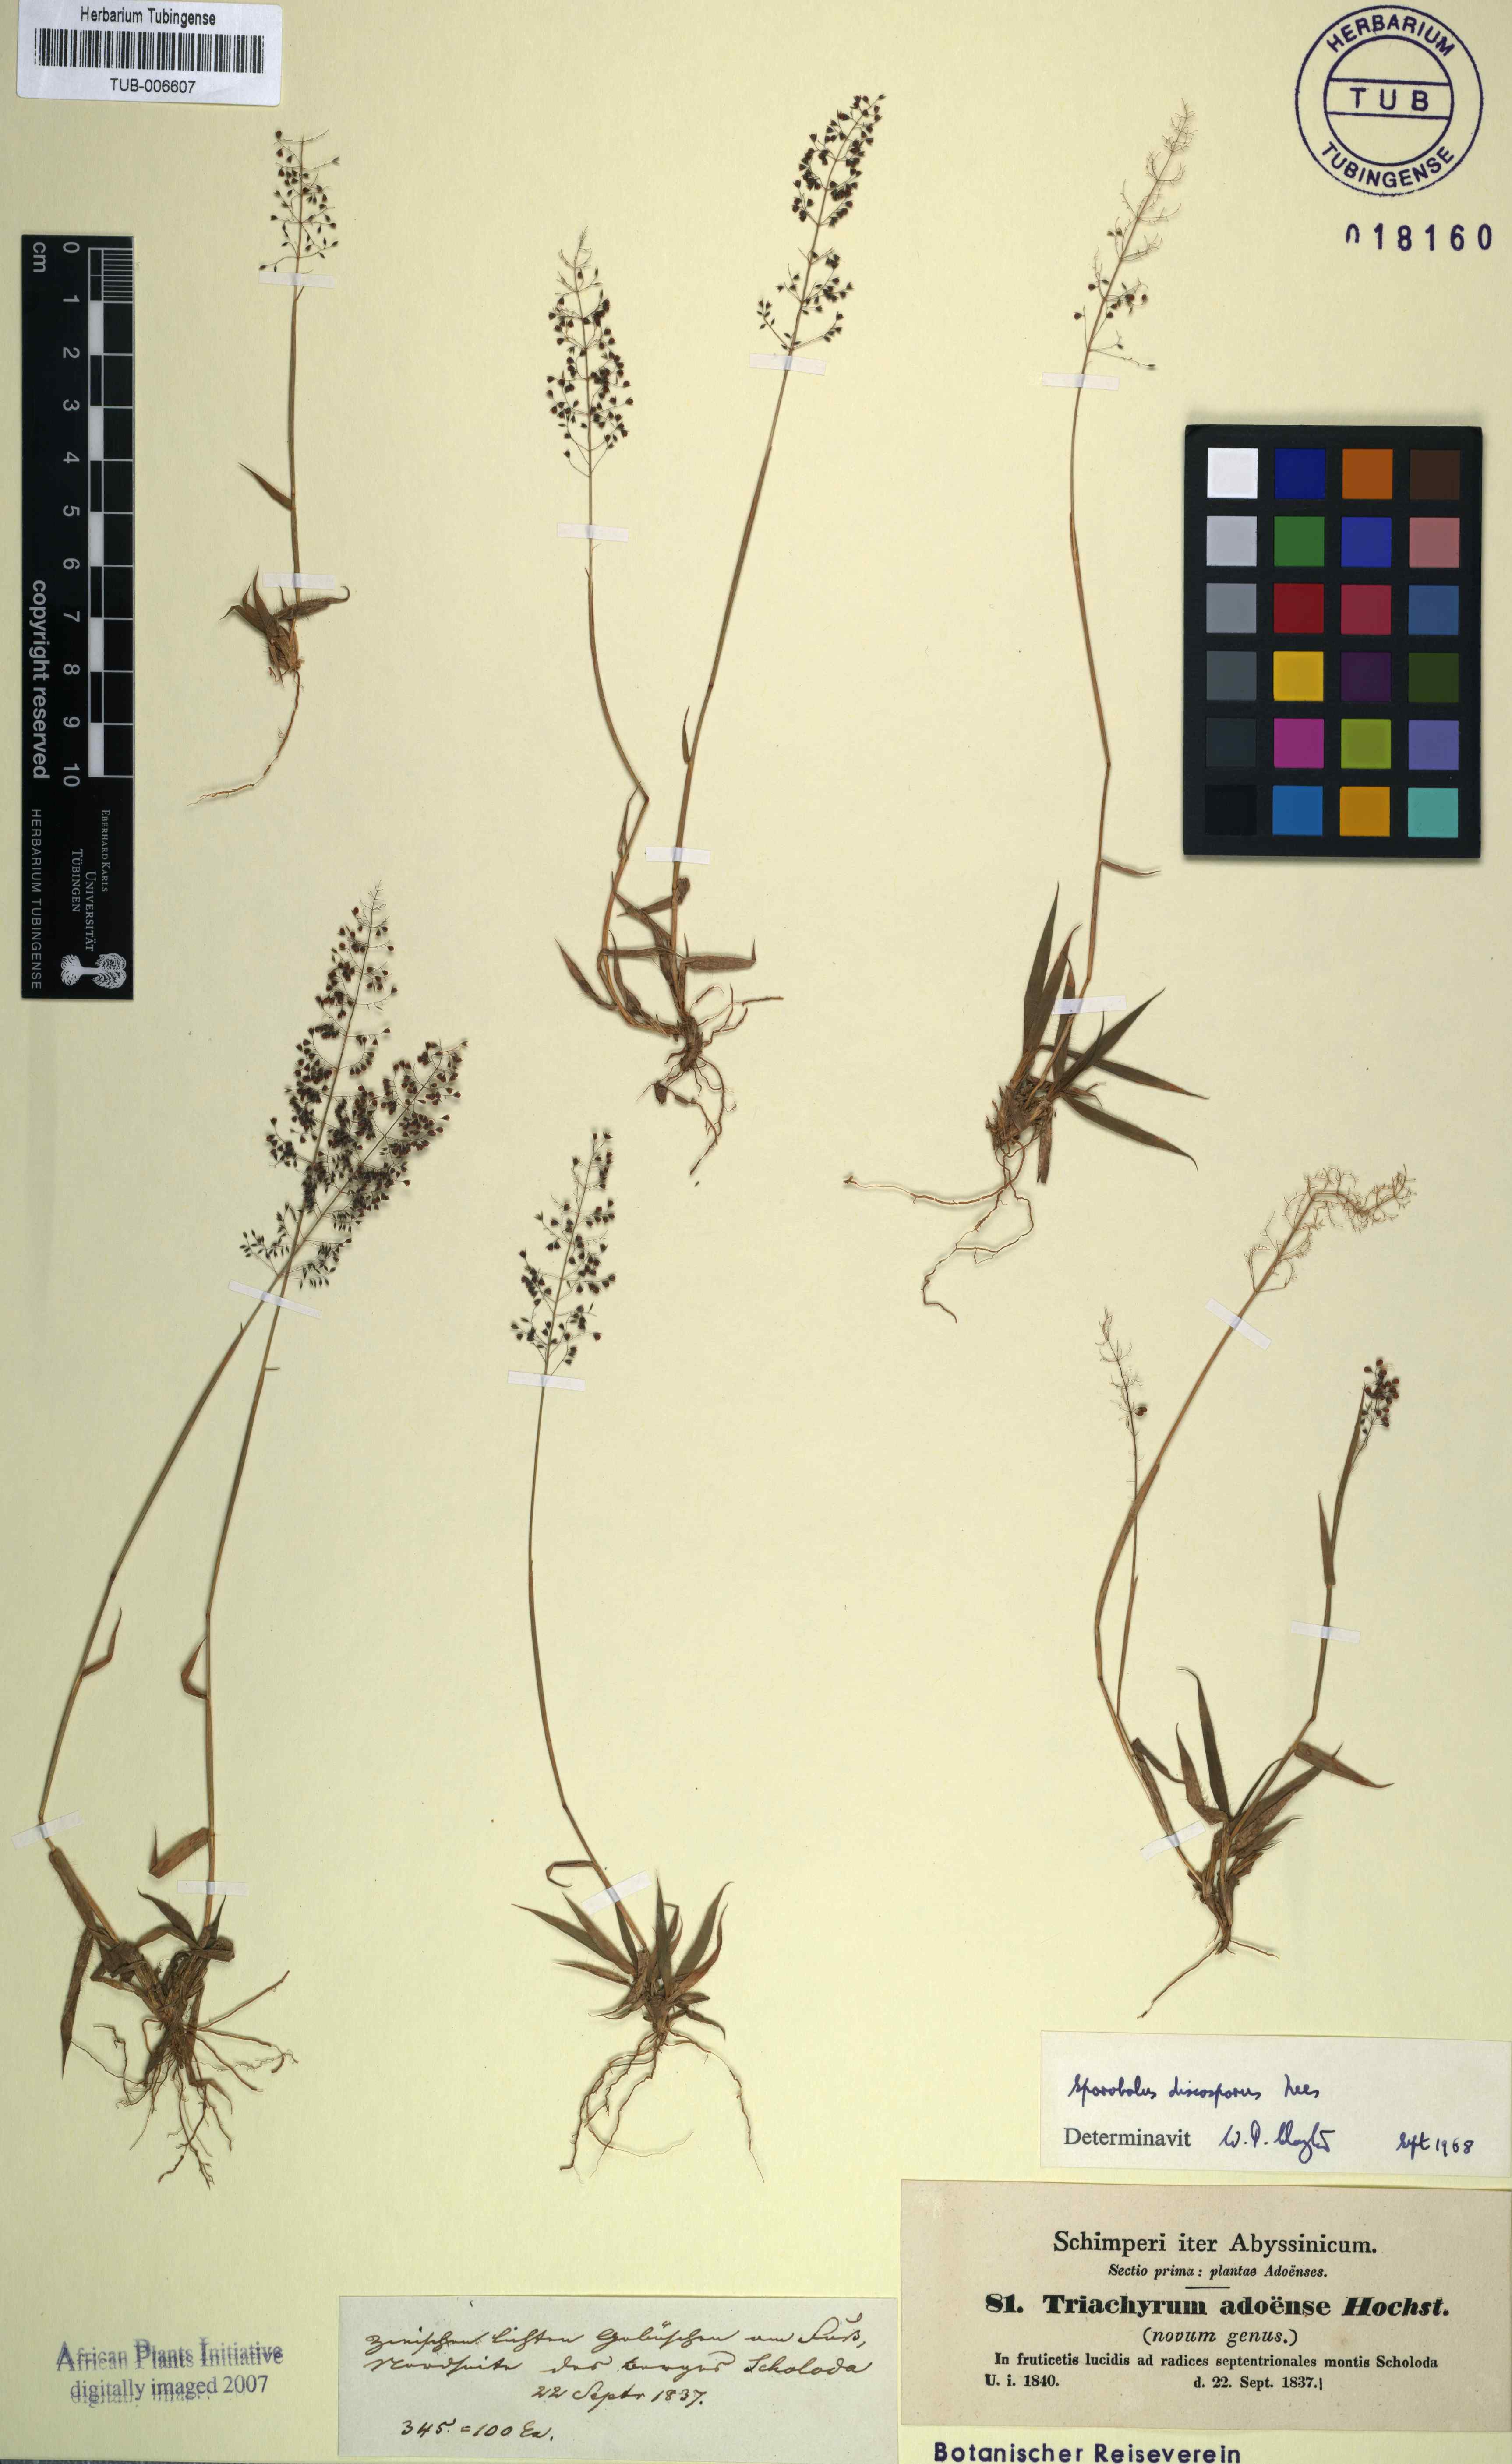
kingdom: Plantae
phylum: Tracheophyta
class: Liliopsida
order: Poales
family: Poaceae
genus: Sporobolus
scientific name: Sporobolus discosporus
